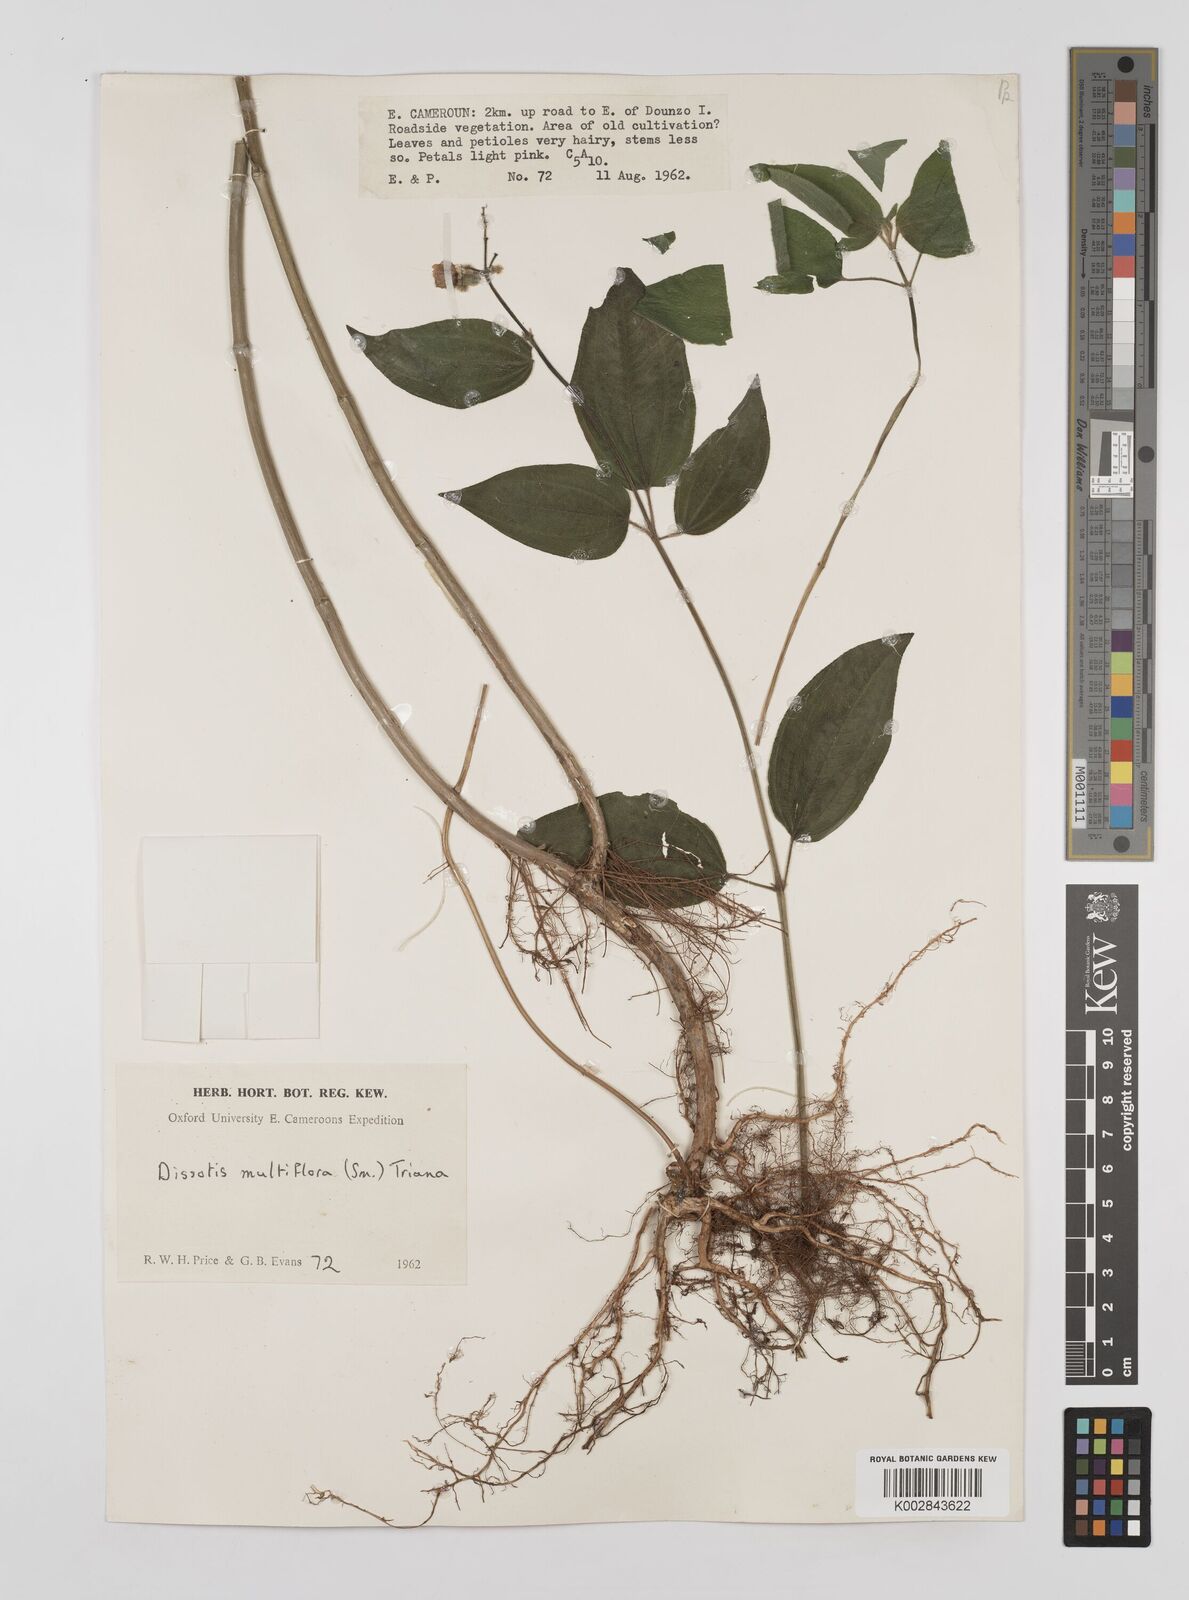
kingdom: Plantae
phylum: Tracheophyta
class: Magnoliopsida
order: Myrtales
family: Melastomataceae
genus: Dupineta
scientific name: Dupineta multiflora
